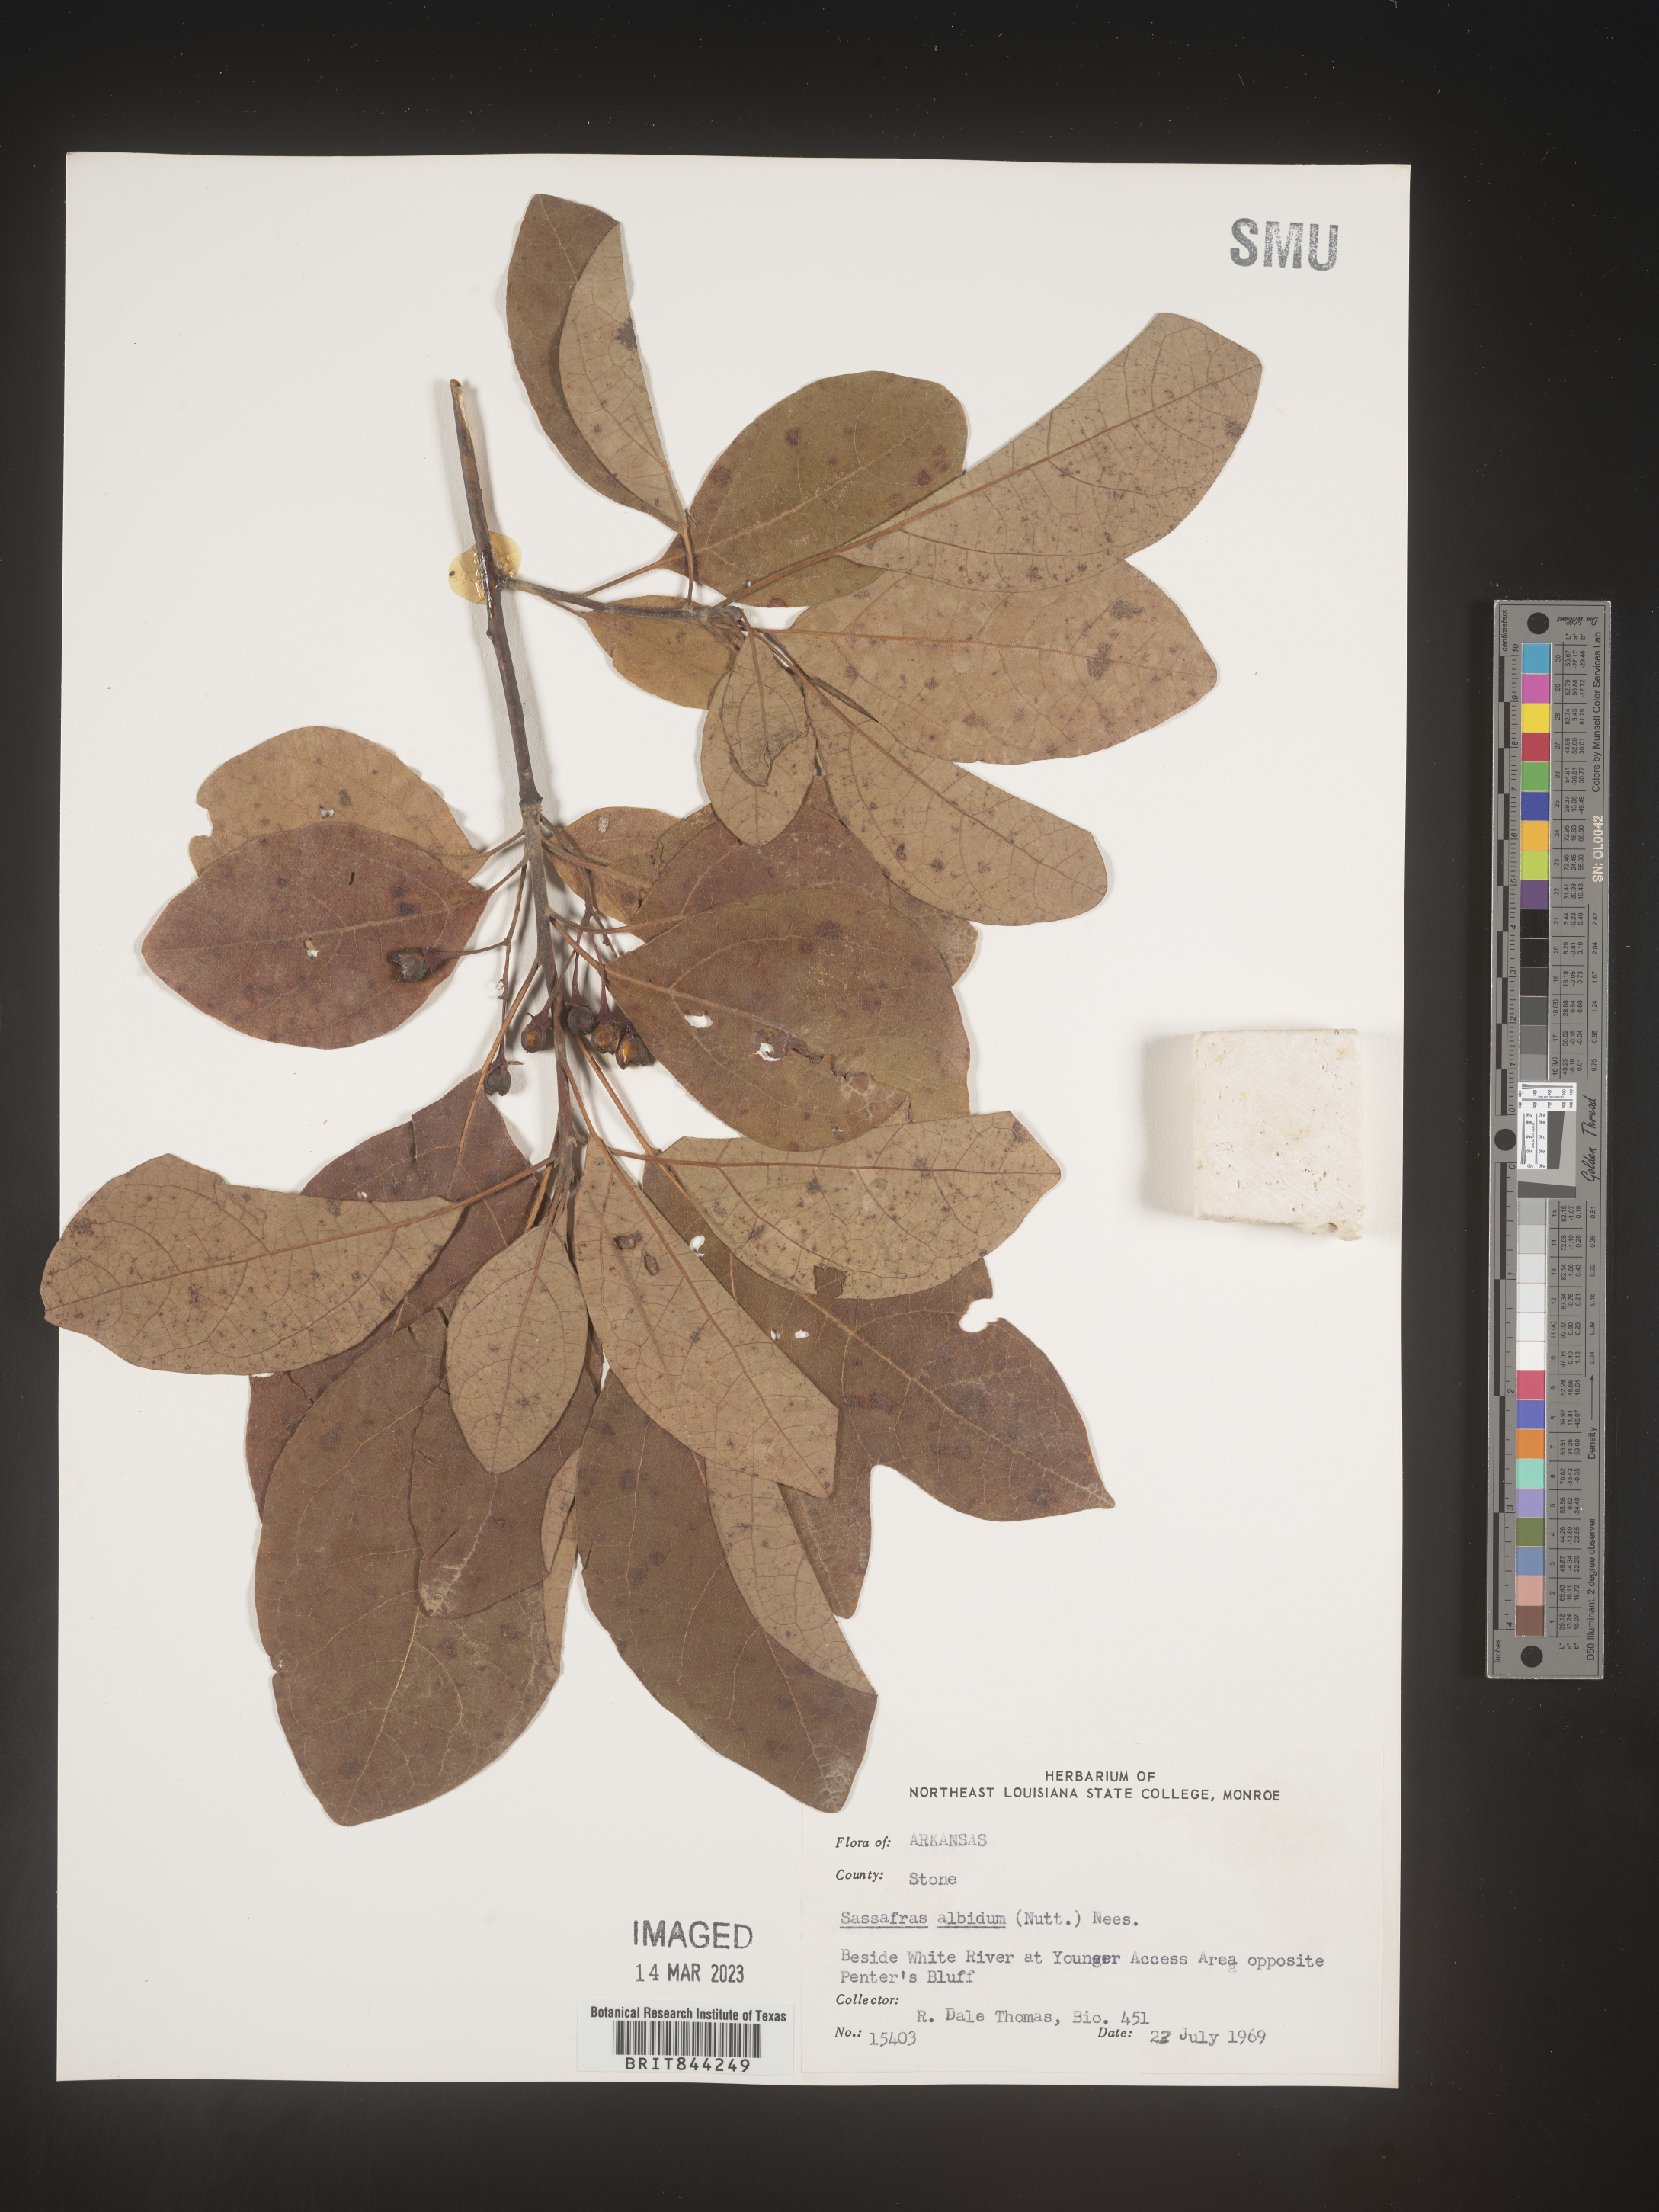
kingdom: Plantae
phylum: Tracheophyta
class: Magnoliopsida
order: Laurales
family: Lauraceae
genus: Sassafras
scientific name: Sassafras albidum
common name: Sassafras
